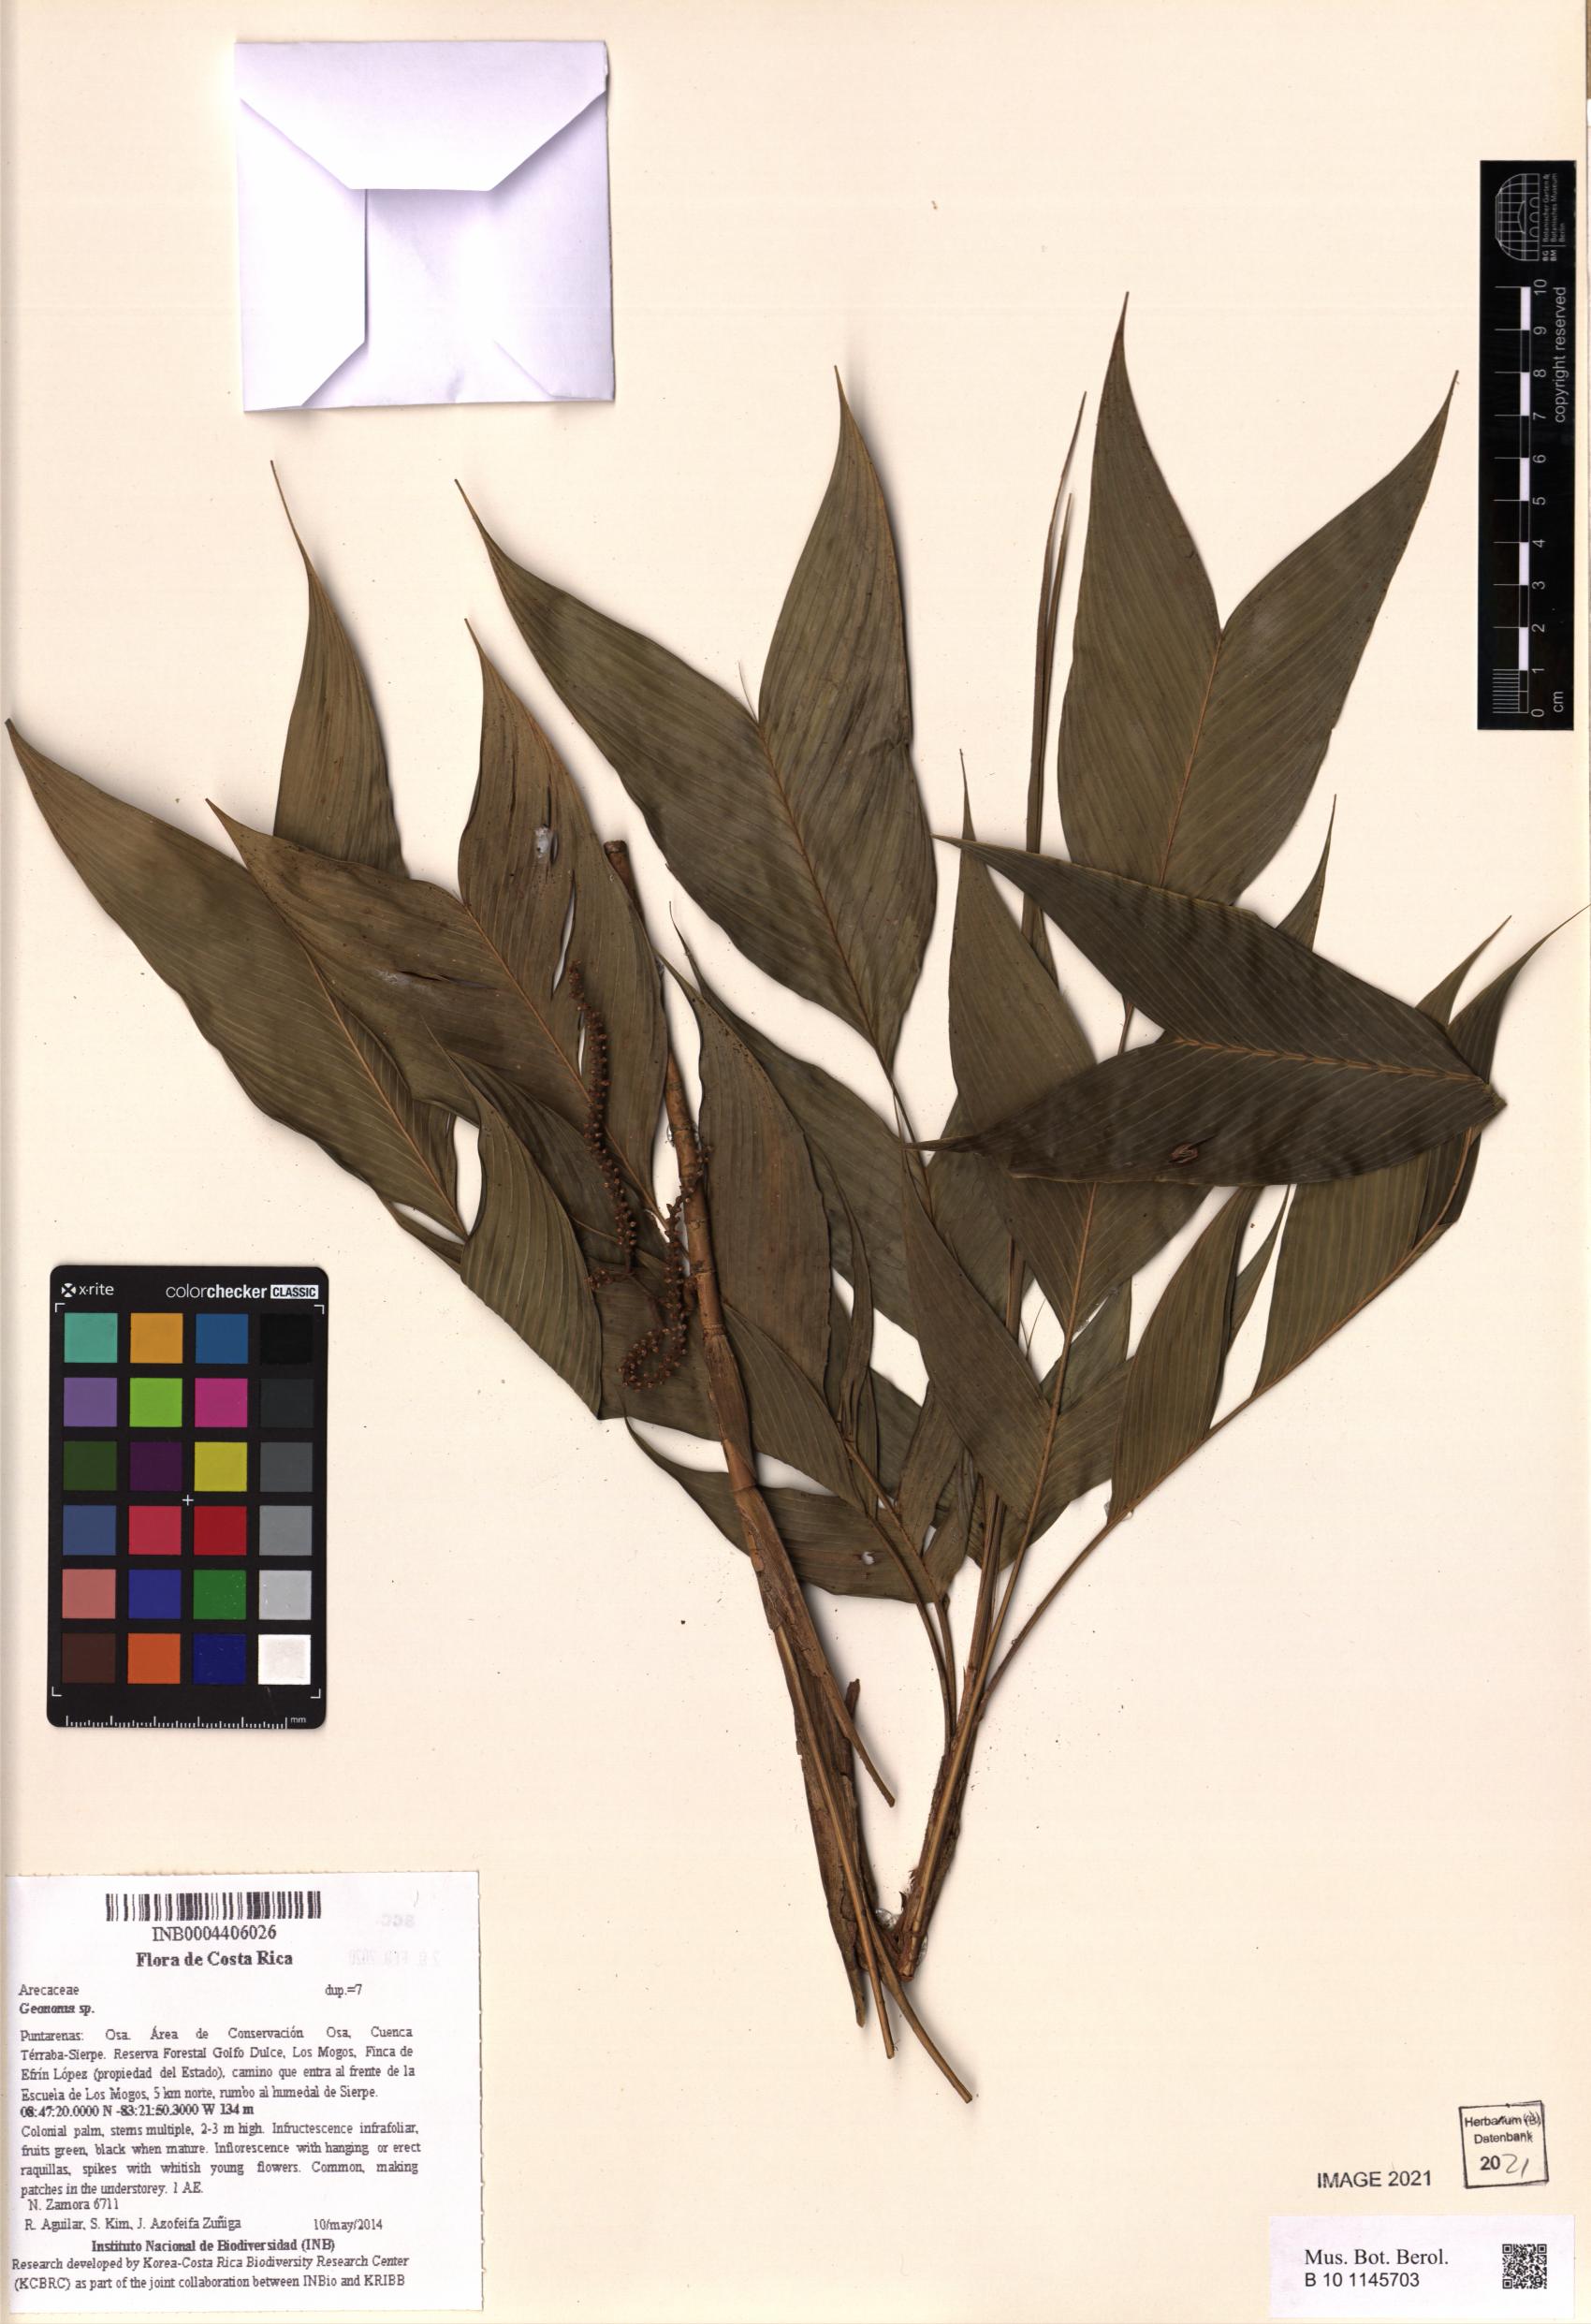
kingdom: Plantae
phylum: Tracheophyta
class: Liliopsida
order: Arecales
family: Arecaceae
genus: Geonoma
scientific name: Geonoma
